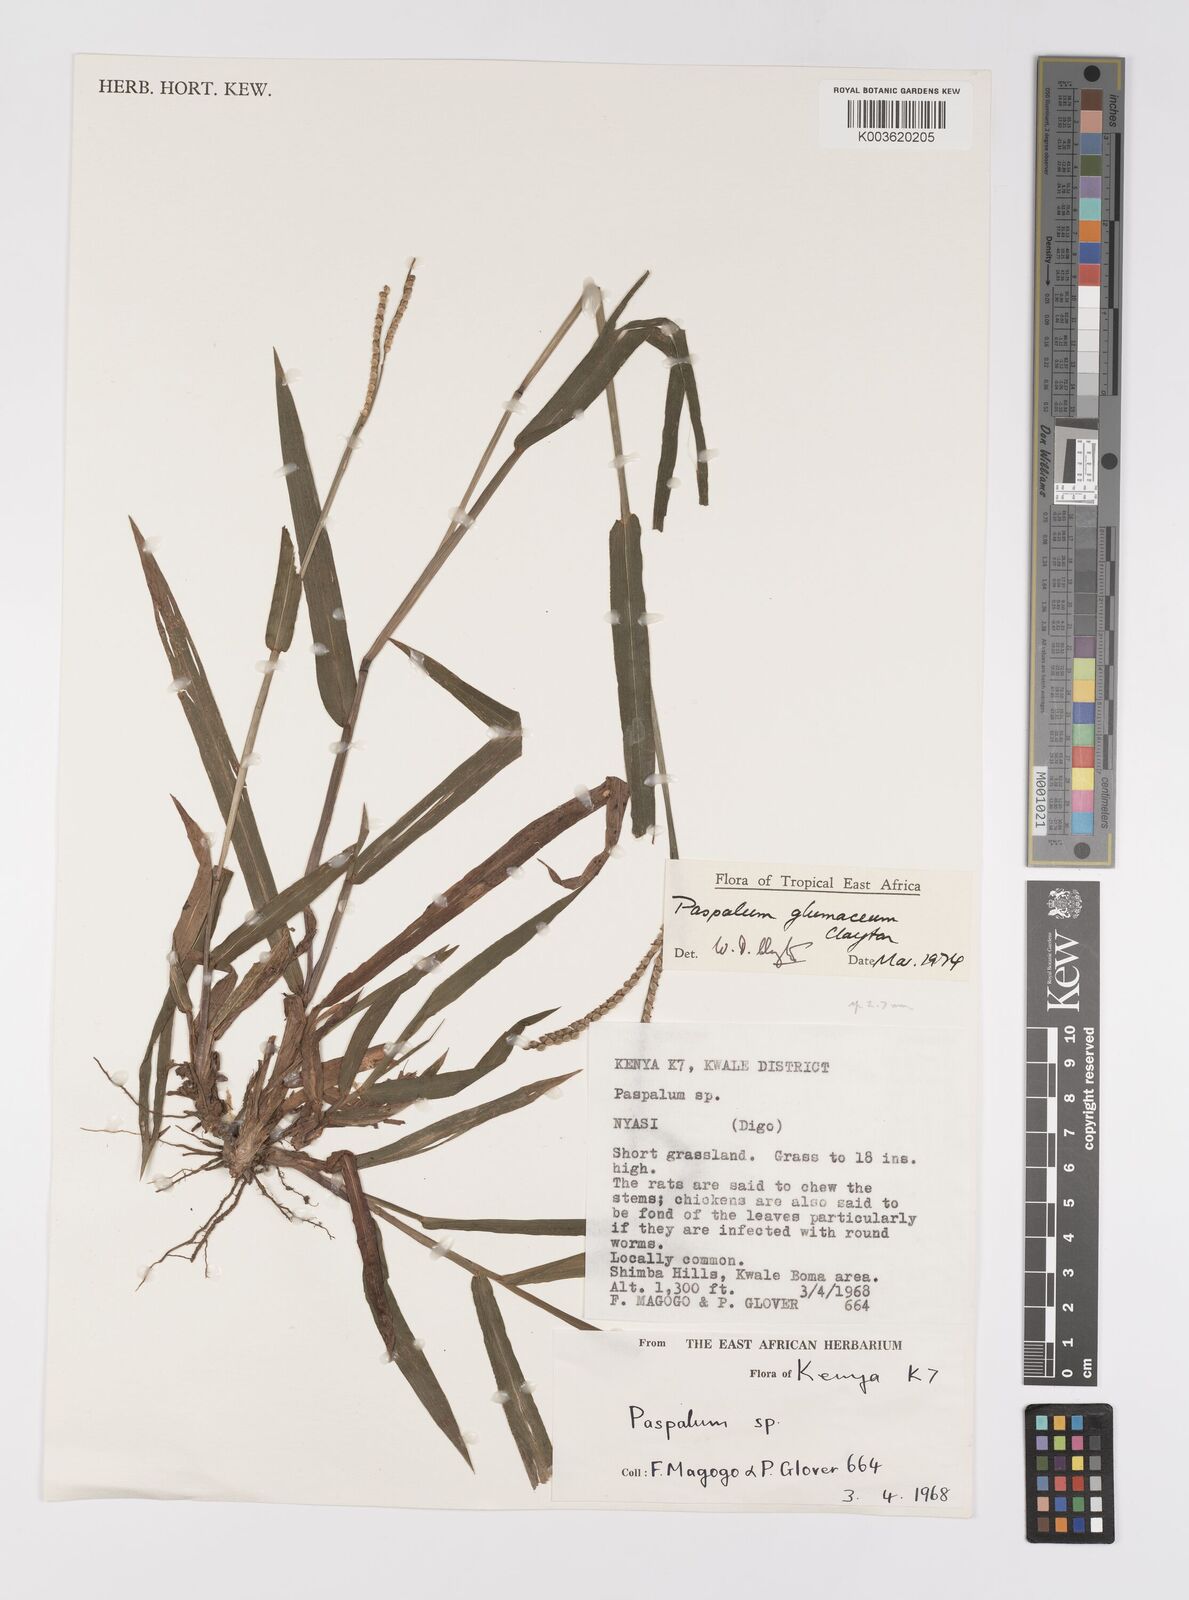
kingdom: Plantae
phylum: Tracheophyta
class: Liliopsida
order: Poales
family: Poaceae
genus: Paspalum
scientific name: Paspalum glumaceum
